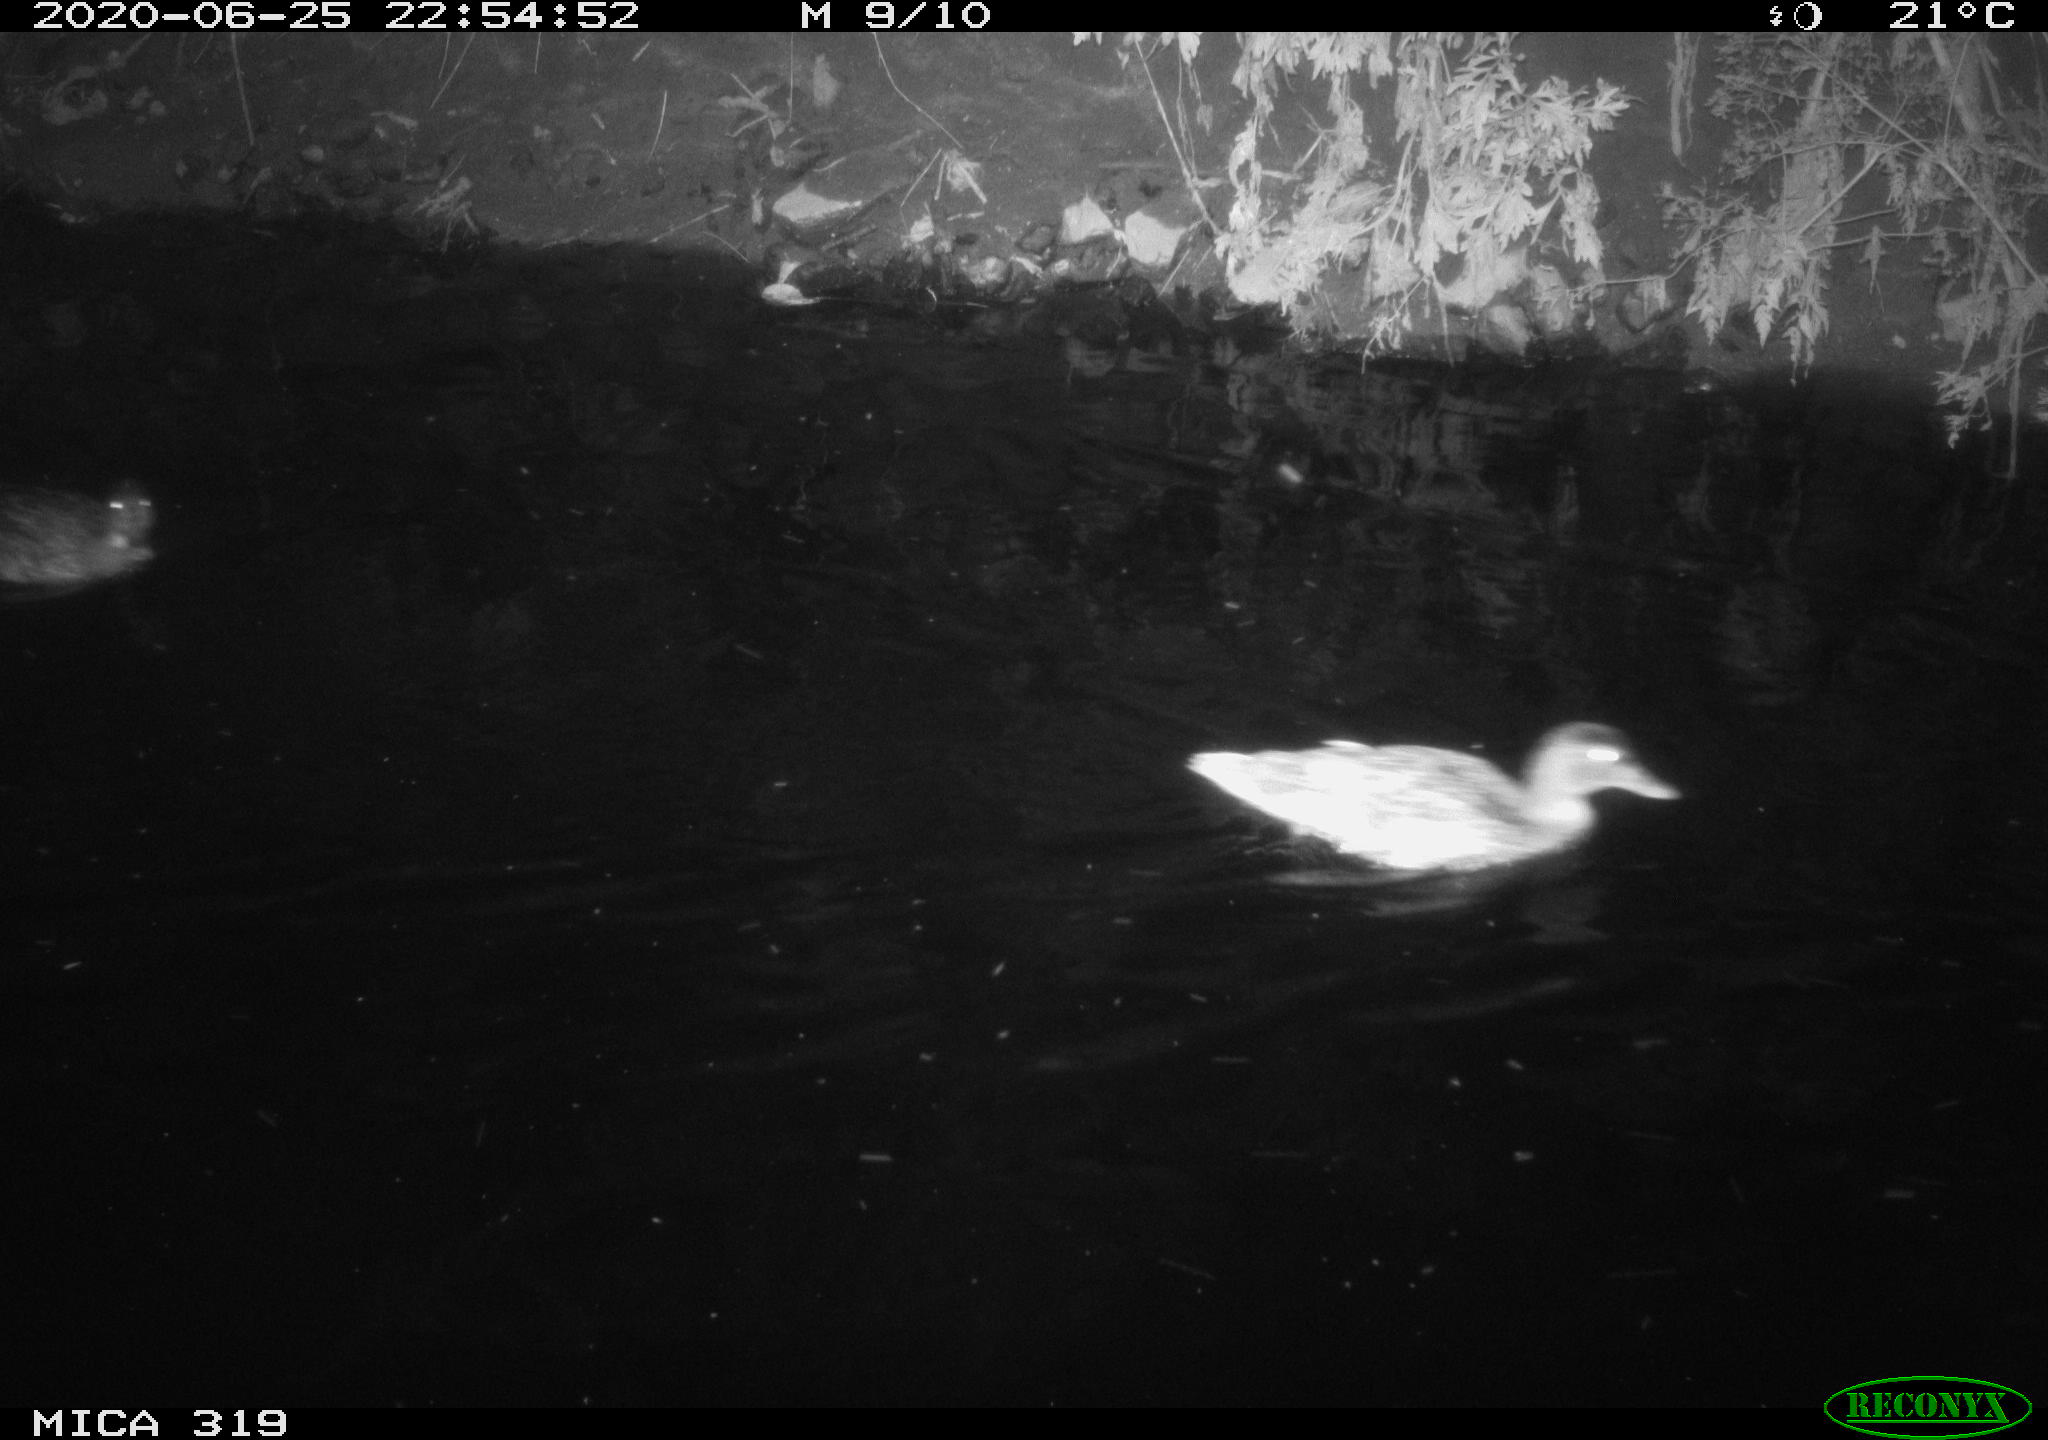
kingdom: Animalia
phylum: Chordata
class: Aves
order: Anseriformes
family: Anatidae
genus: Anas
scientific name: Anas platyrhynchos
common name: Mallard
